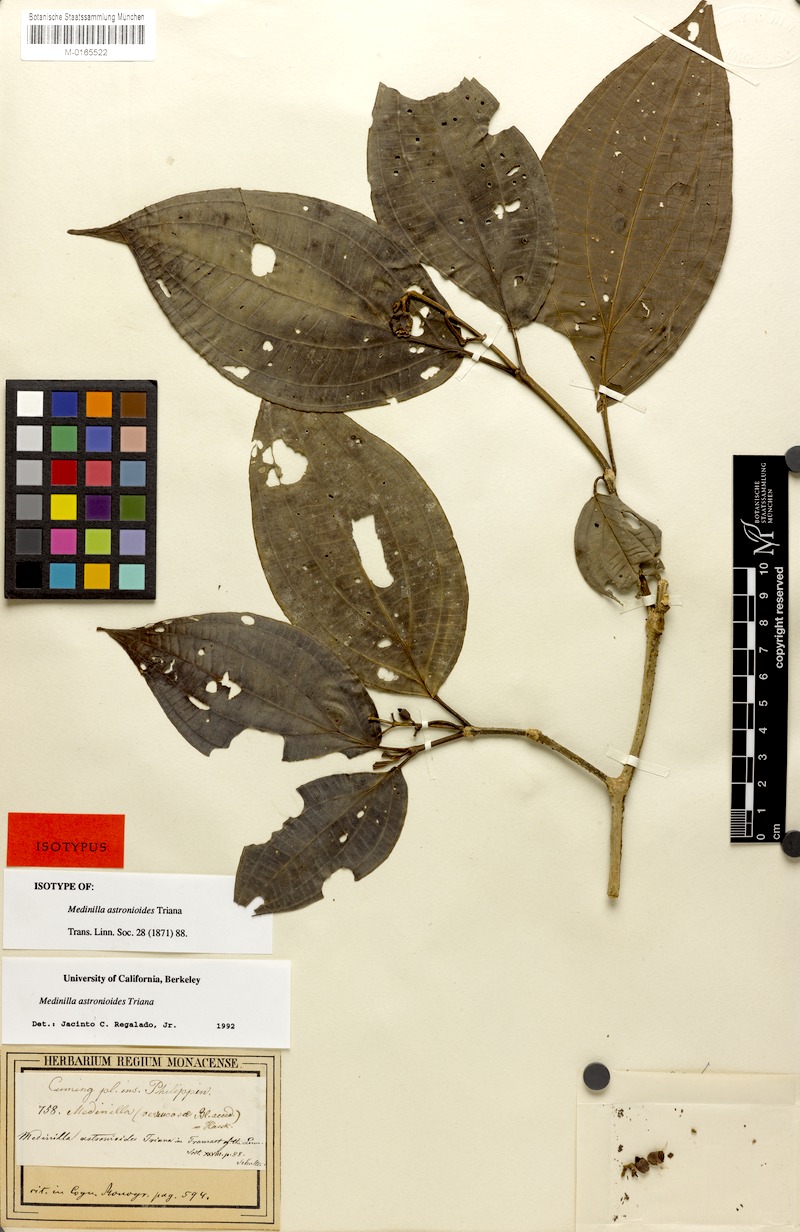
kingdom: Plantae
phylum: Tracheophyta
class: Magnoliopsida
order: Myrtales
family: Melastomataceae
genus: Medinilla
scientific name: Medinilla astronioides
